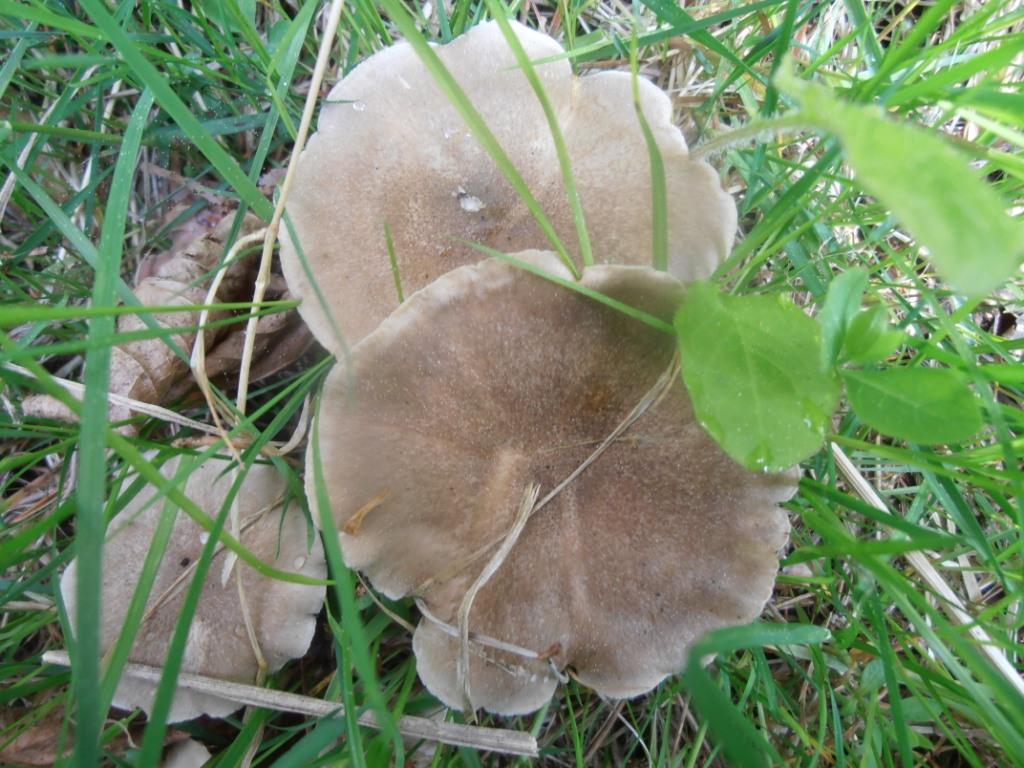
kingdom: Fungi
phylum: Basidiomycota
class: Agaricomycetes
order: Polyporales
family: Polyporaceae
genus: Lentinus
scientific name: Lentinus substrictus
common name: forårs-stilkporesvamp
